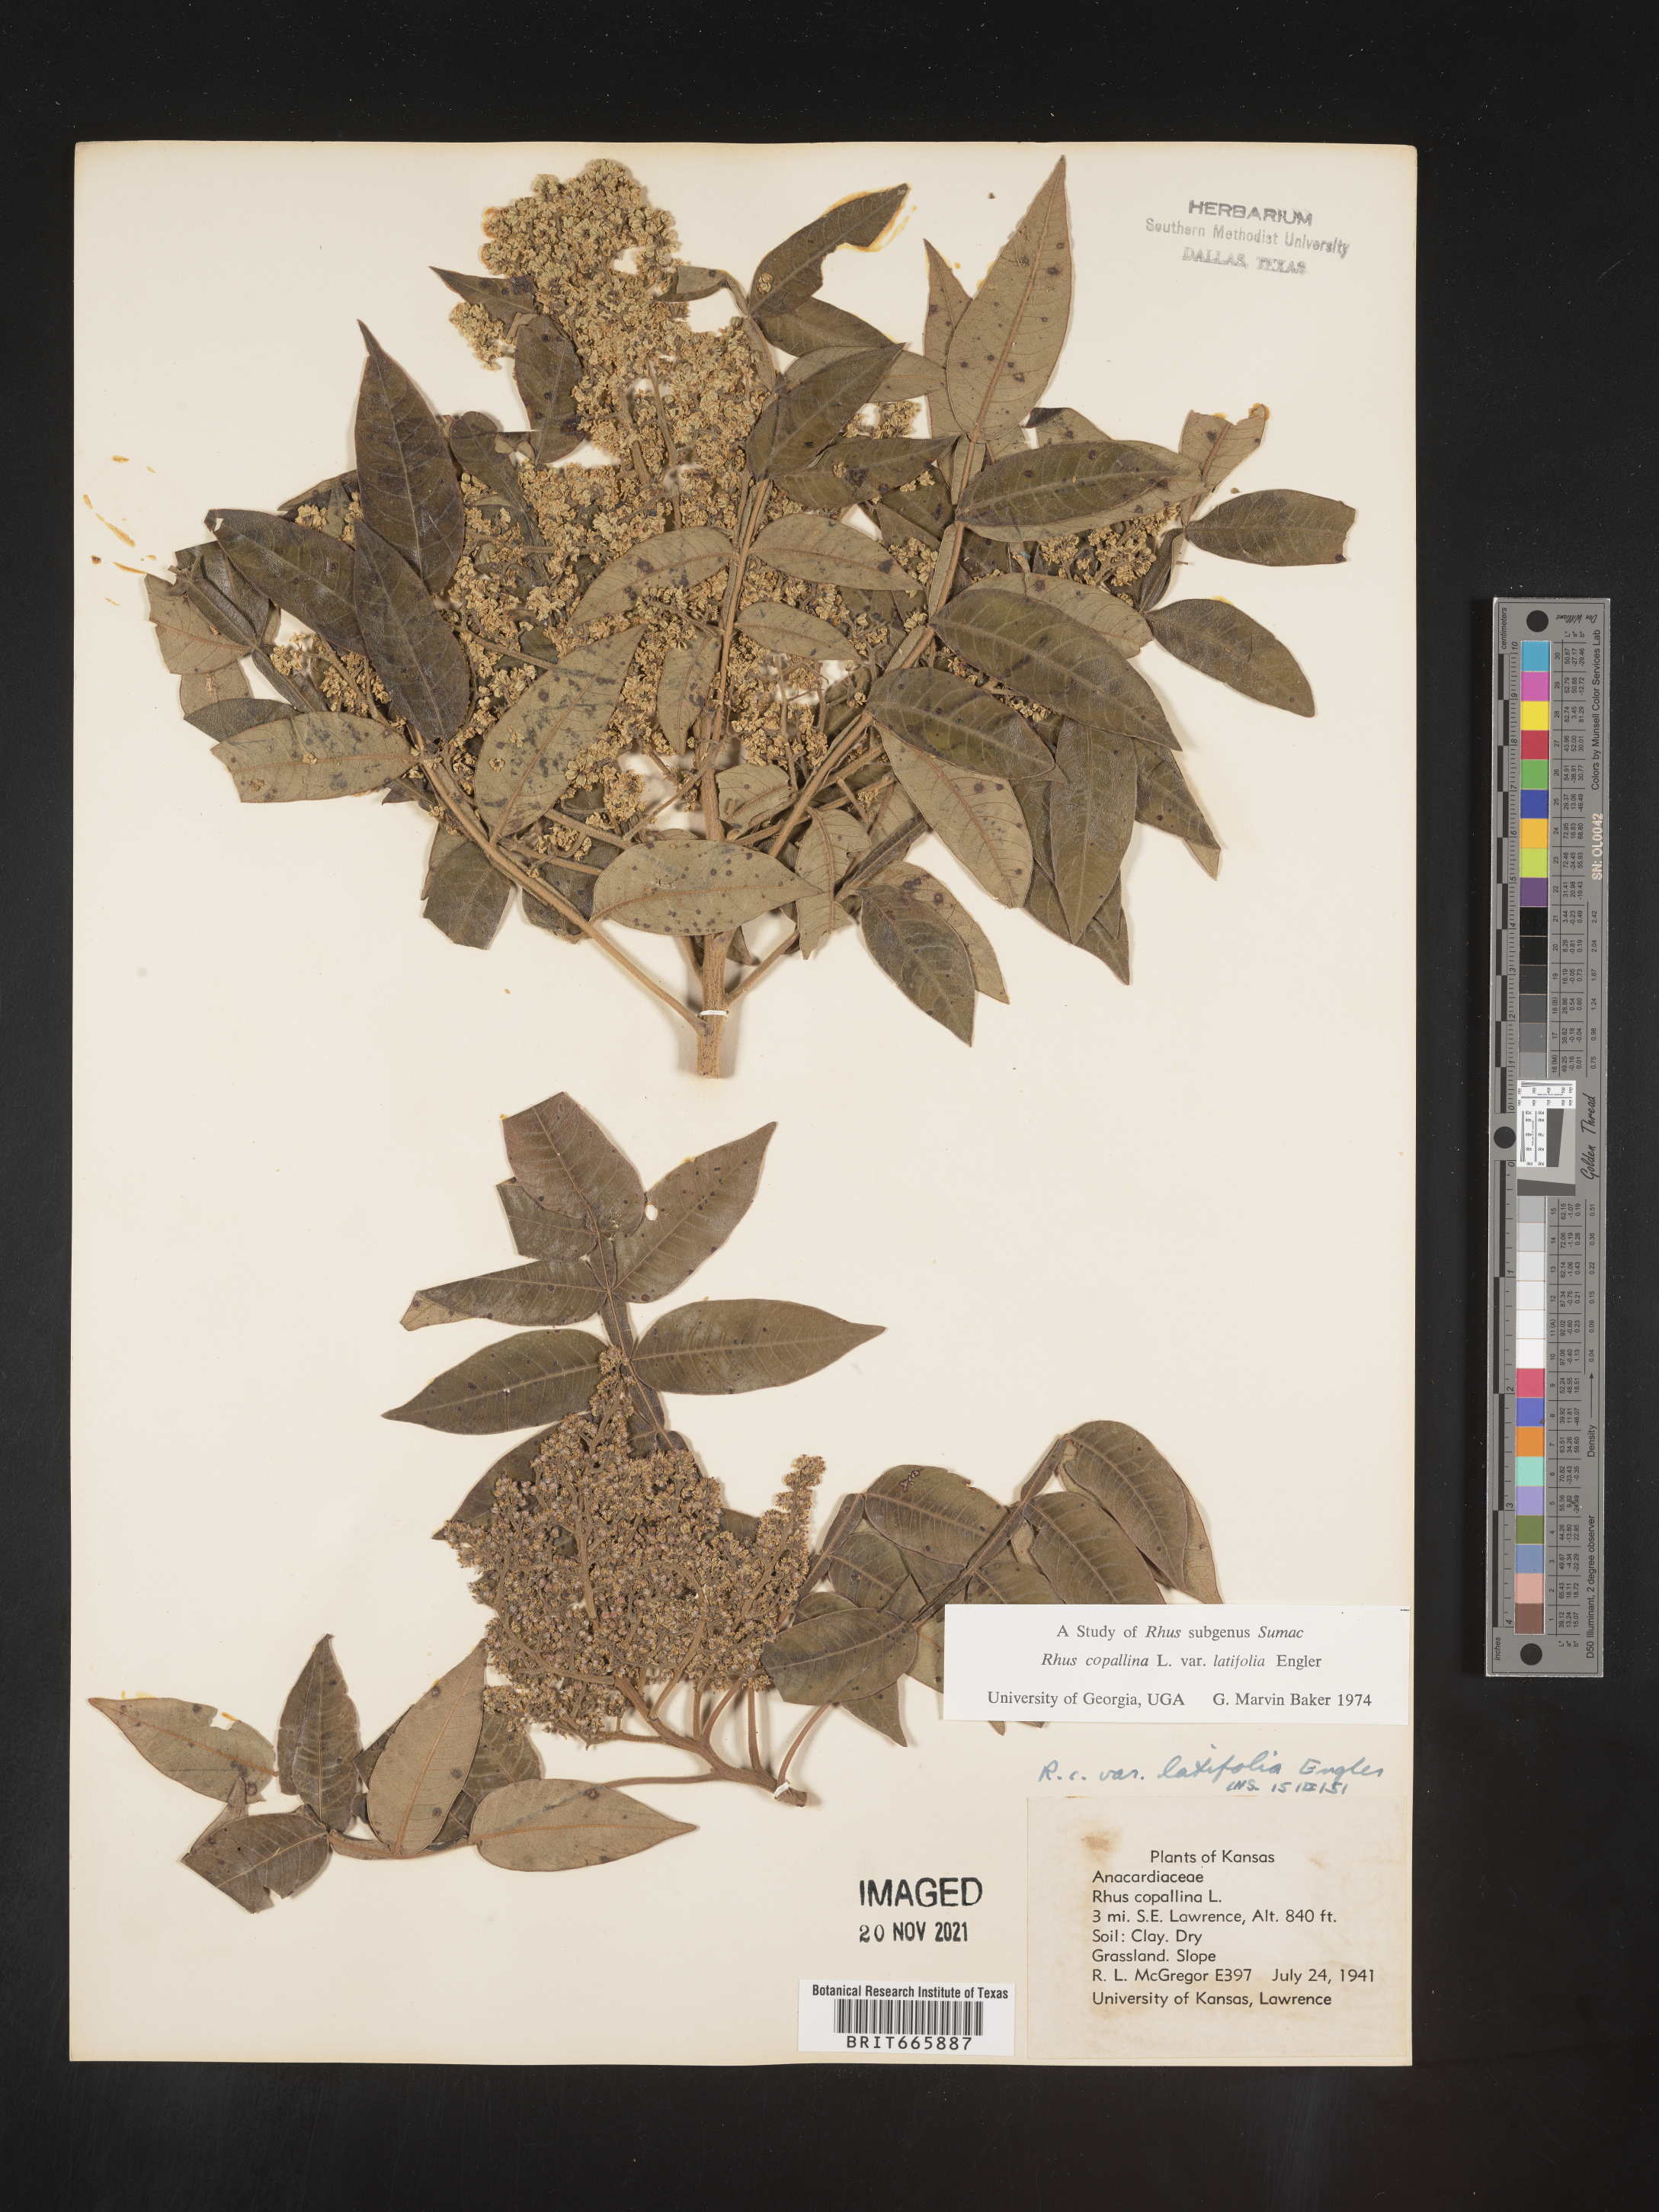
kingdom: Plantae
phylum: Tracheophyta
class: Magnoliopsida
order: Sapindales
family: Anacardiaceae
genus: Rhus
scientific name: Rhus copallina
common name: Shining sumac
